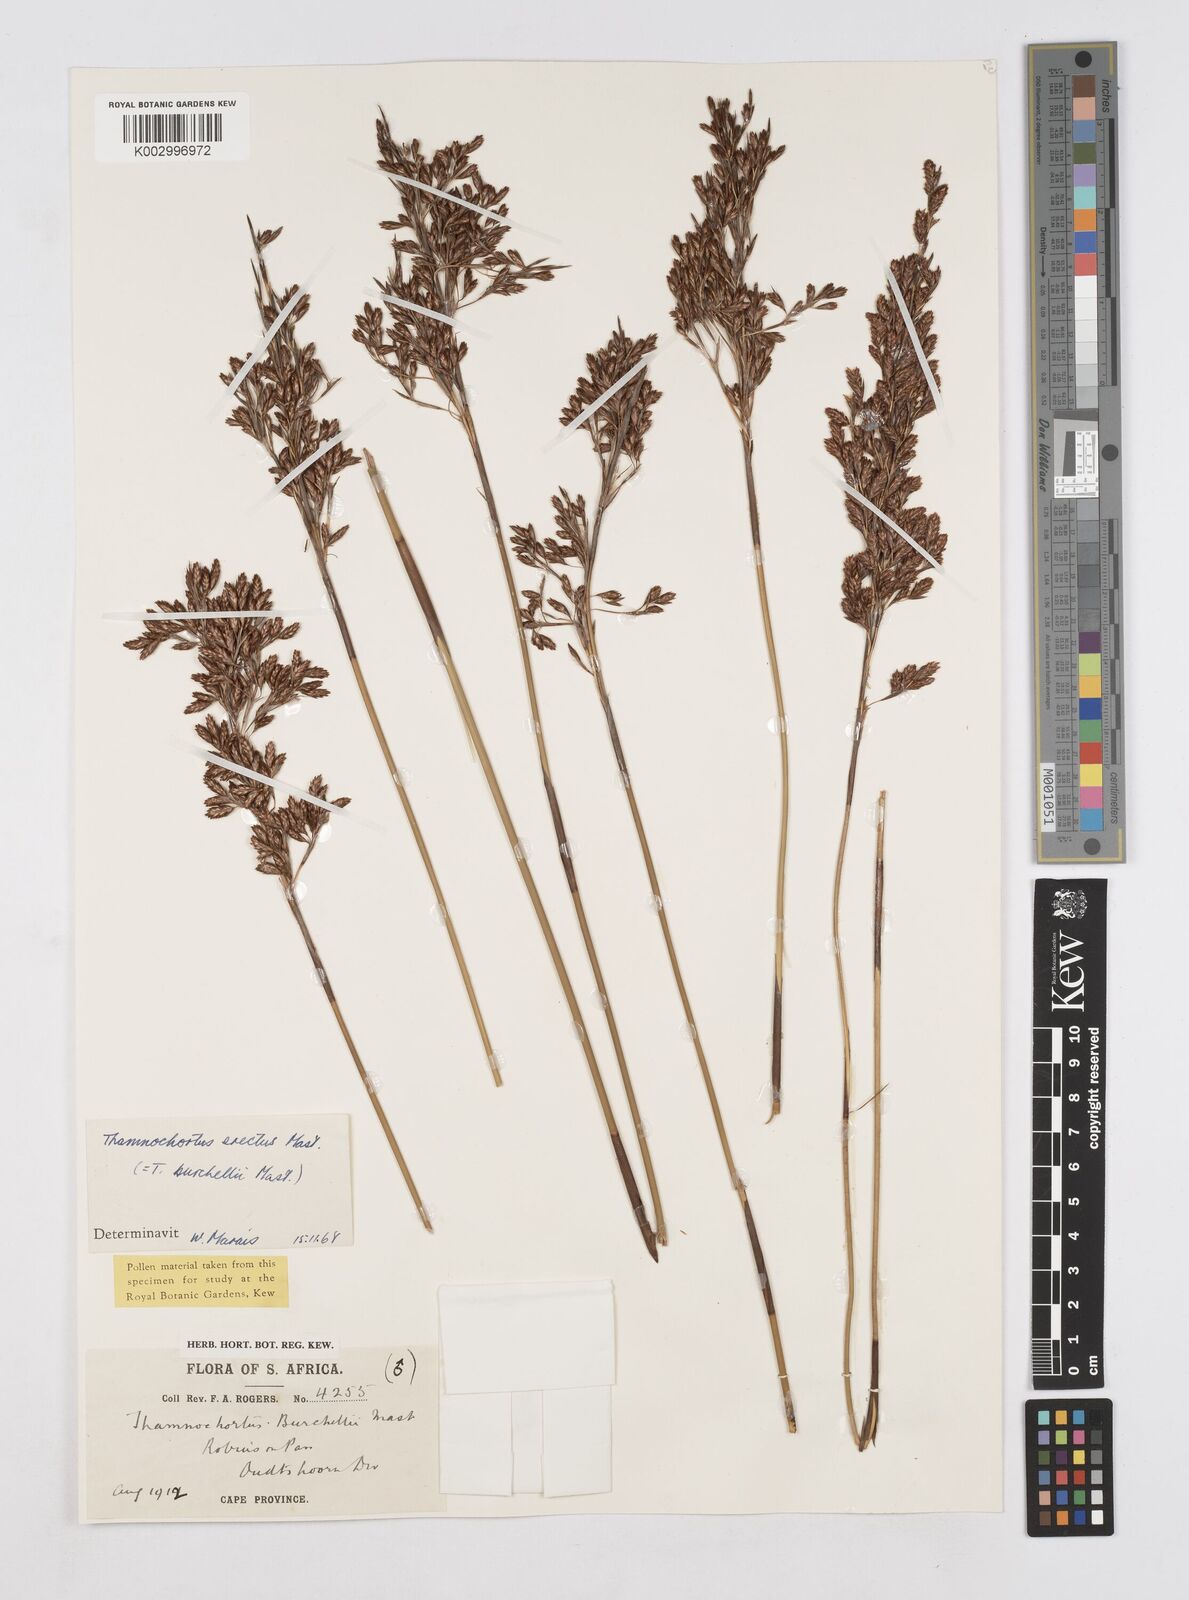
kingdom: Plantae
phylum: Tracheophyta
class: Liliopsida
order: Poales
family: Restionaceae
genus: Thamnochortus
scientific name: Thamnochortus erectus
